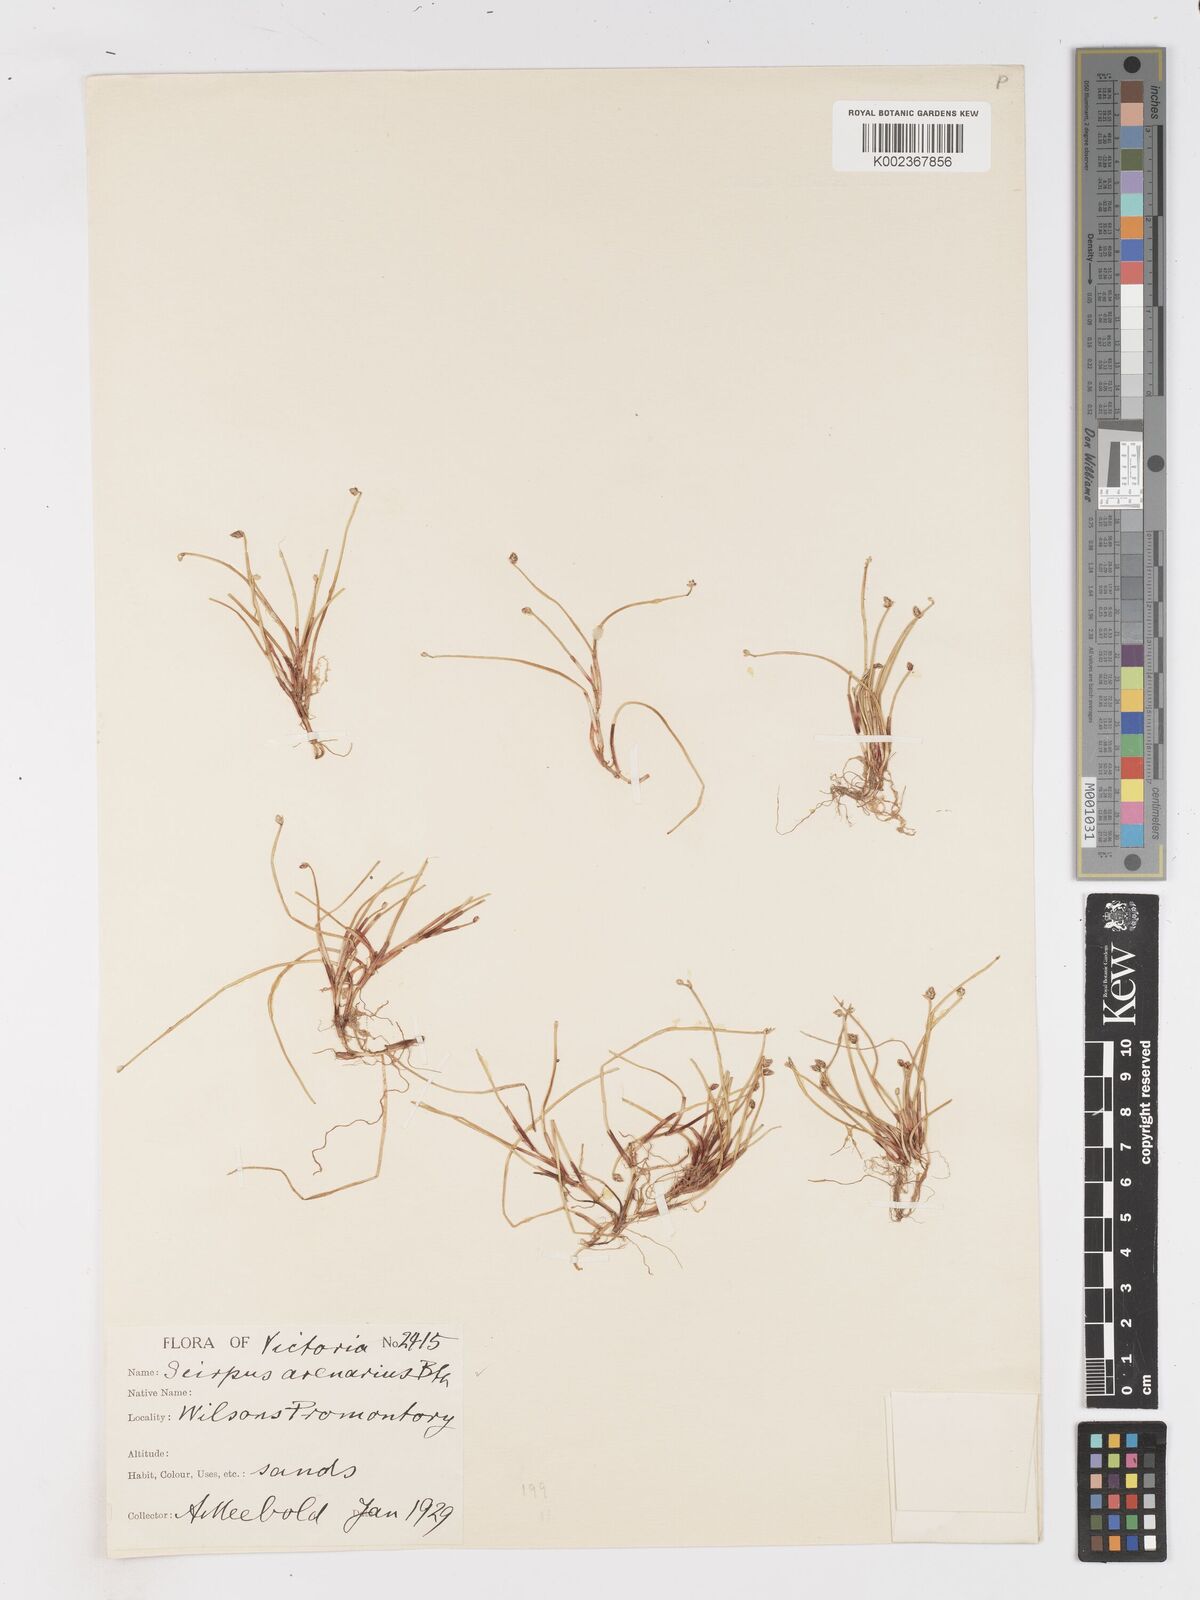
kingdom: Plantae
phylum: Tracheophyta
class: Liliopsida
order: Poales
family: Cyperaceae
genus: Isolepis
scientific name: Isolepis cernua
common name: Slender club-rush
